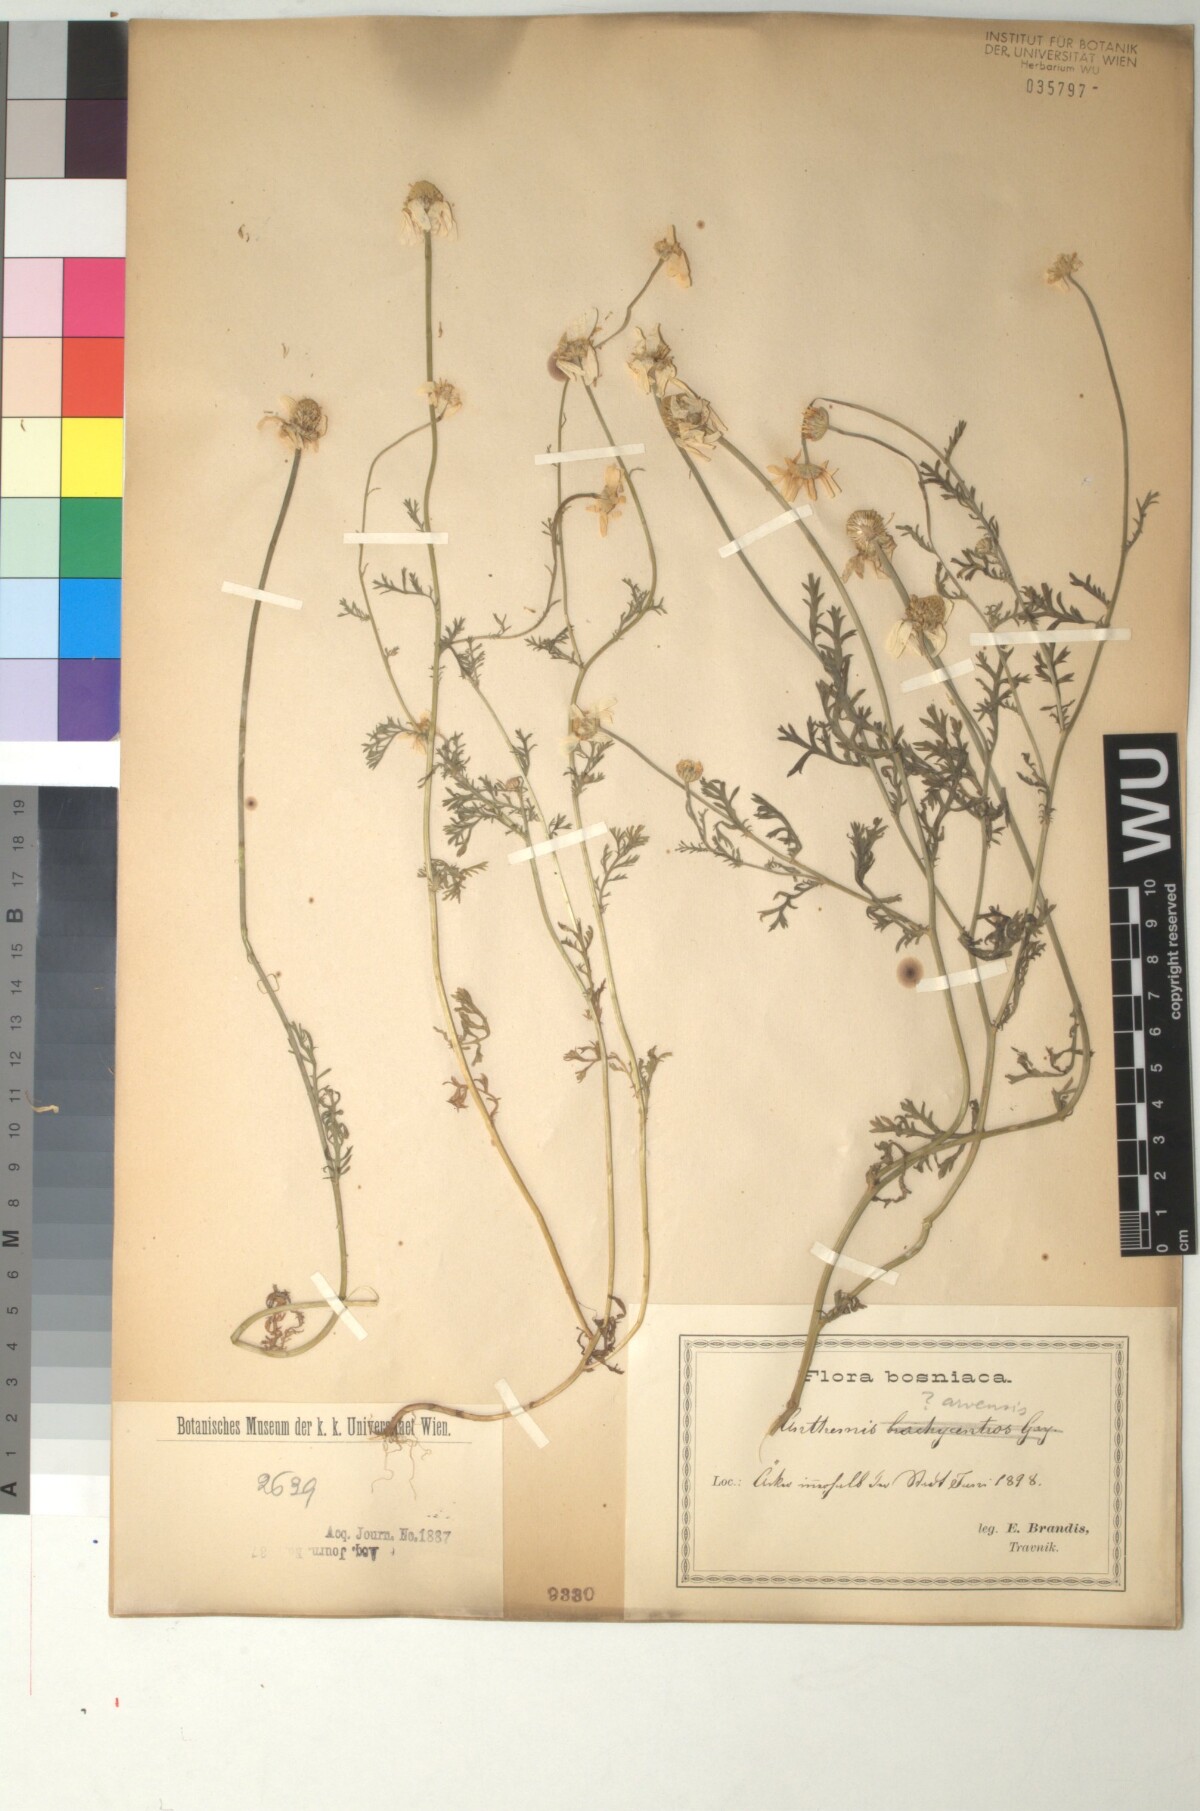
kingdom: Plantae
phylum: Tracheophyta
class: Magnoliopsida
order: Asterales
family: Asteraceae
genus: Anthemis
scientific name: Anthemis arvensis
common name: Corn chamomile
